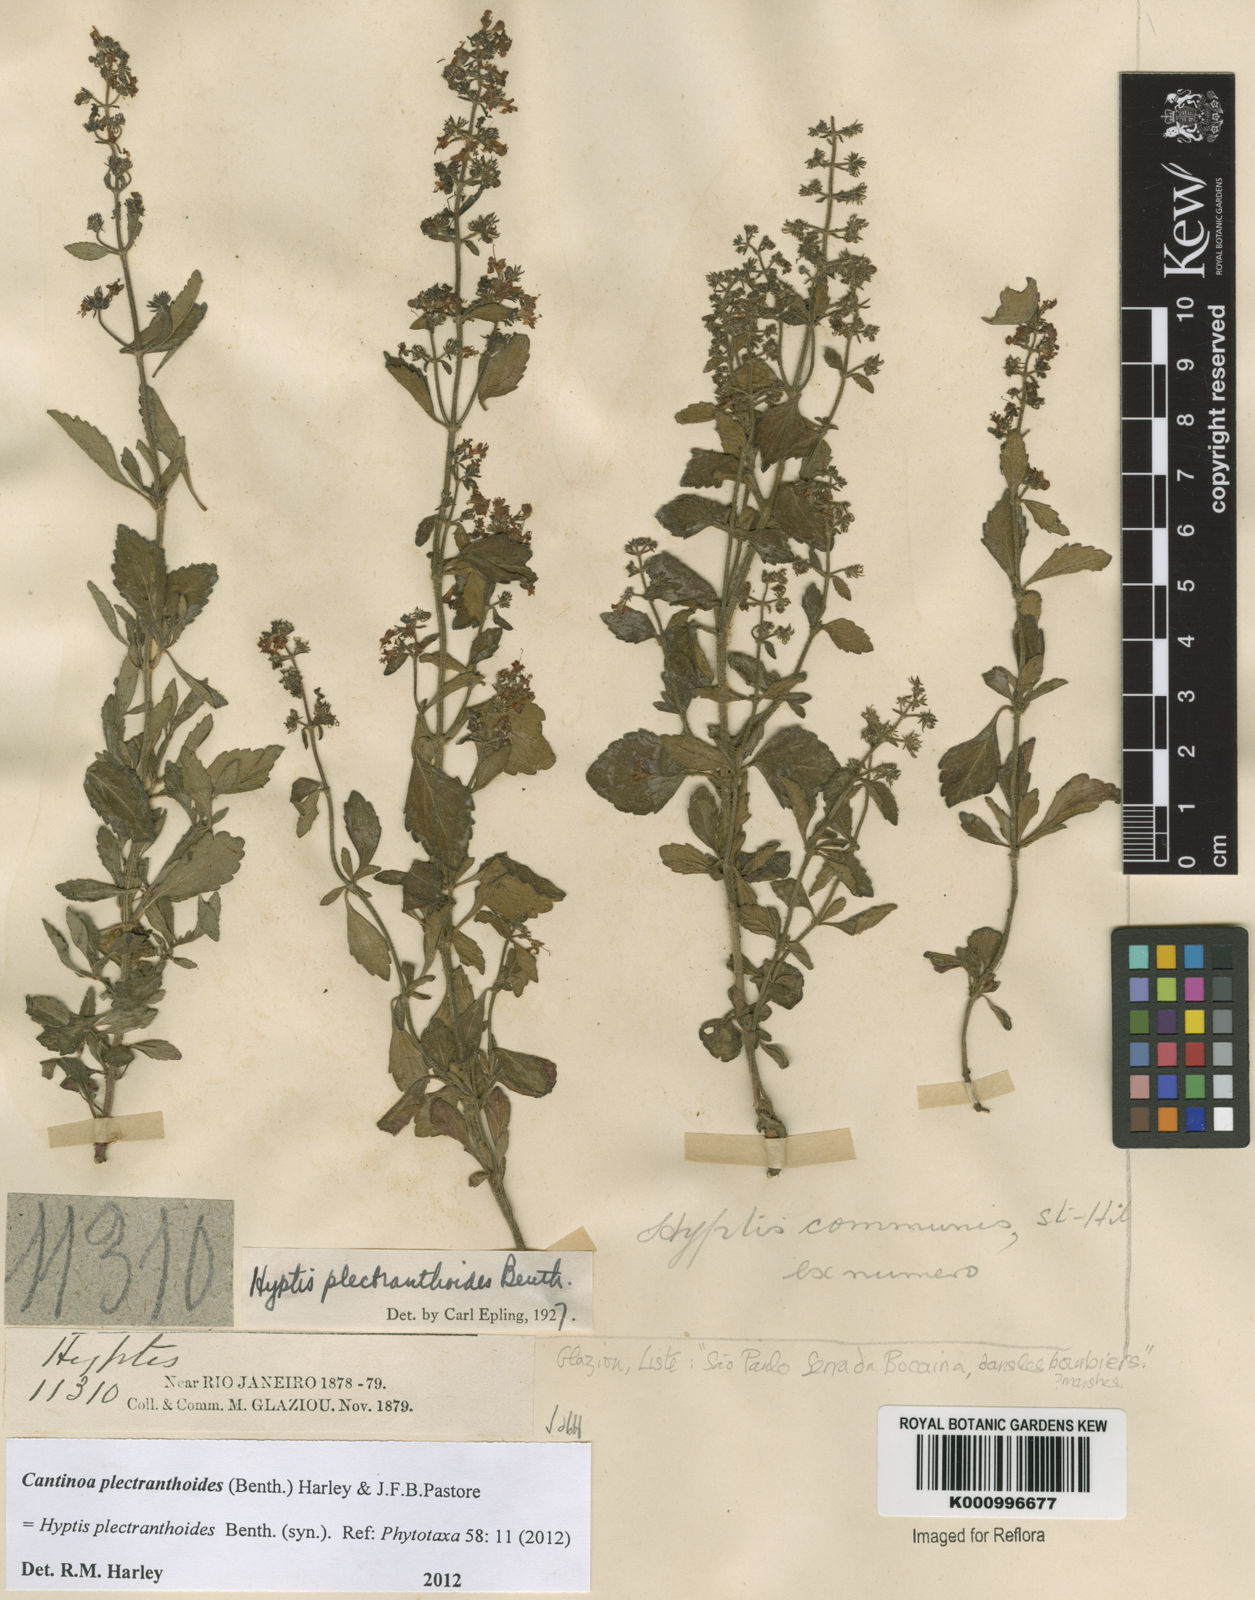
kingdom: Plantae
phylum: Tracheophyta
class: Magnoliopsida
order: Lamiales
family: Lamiaceae
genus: Cantinoa
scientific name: Cantinoa plectranthoides
